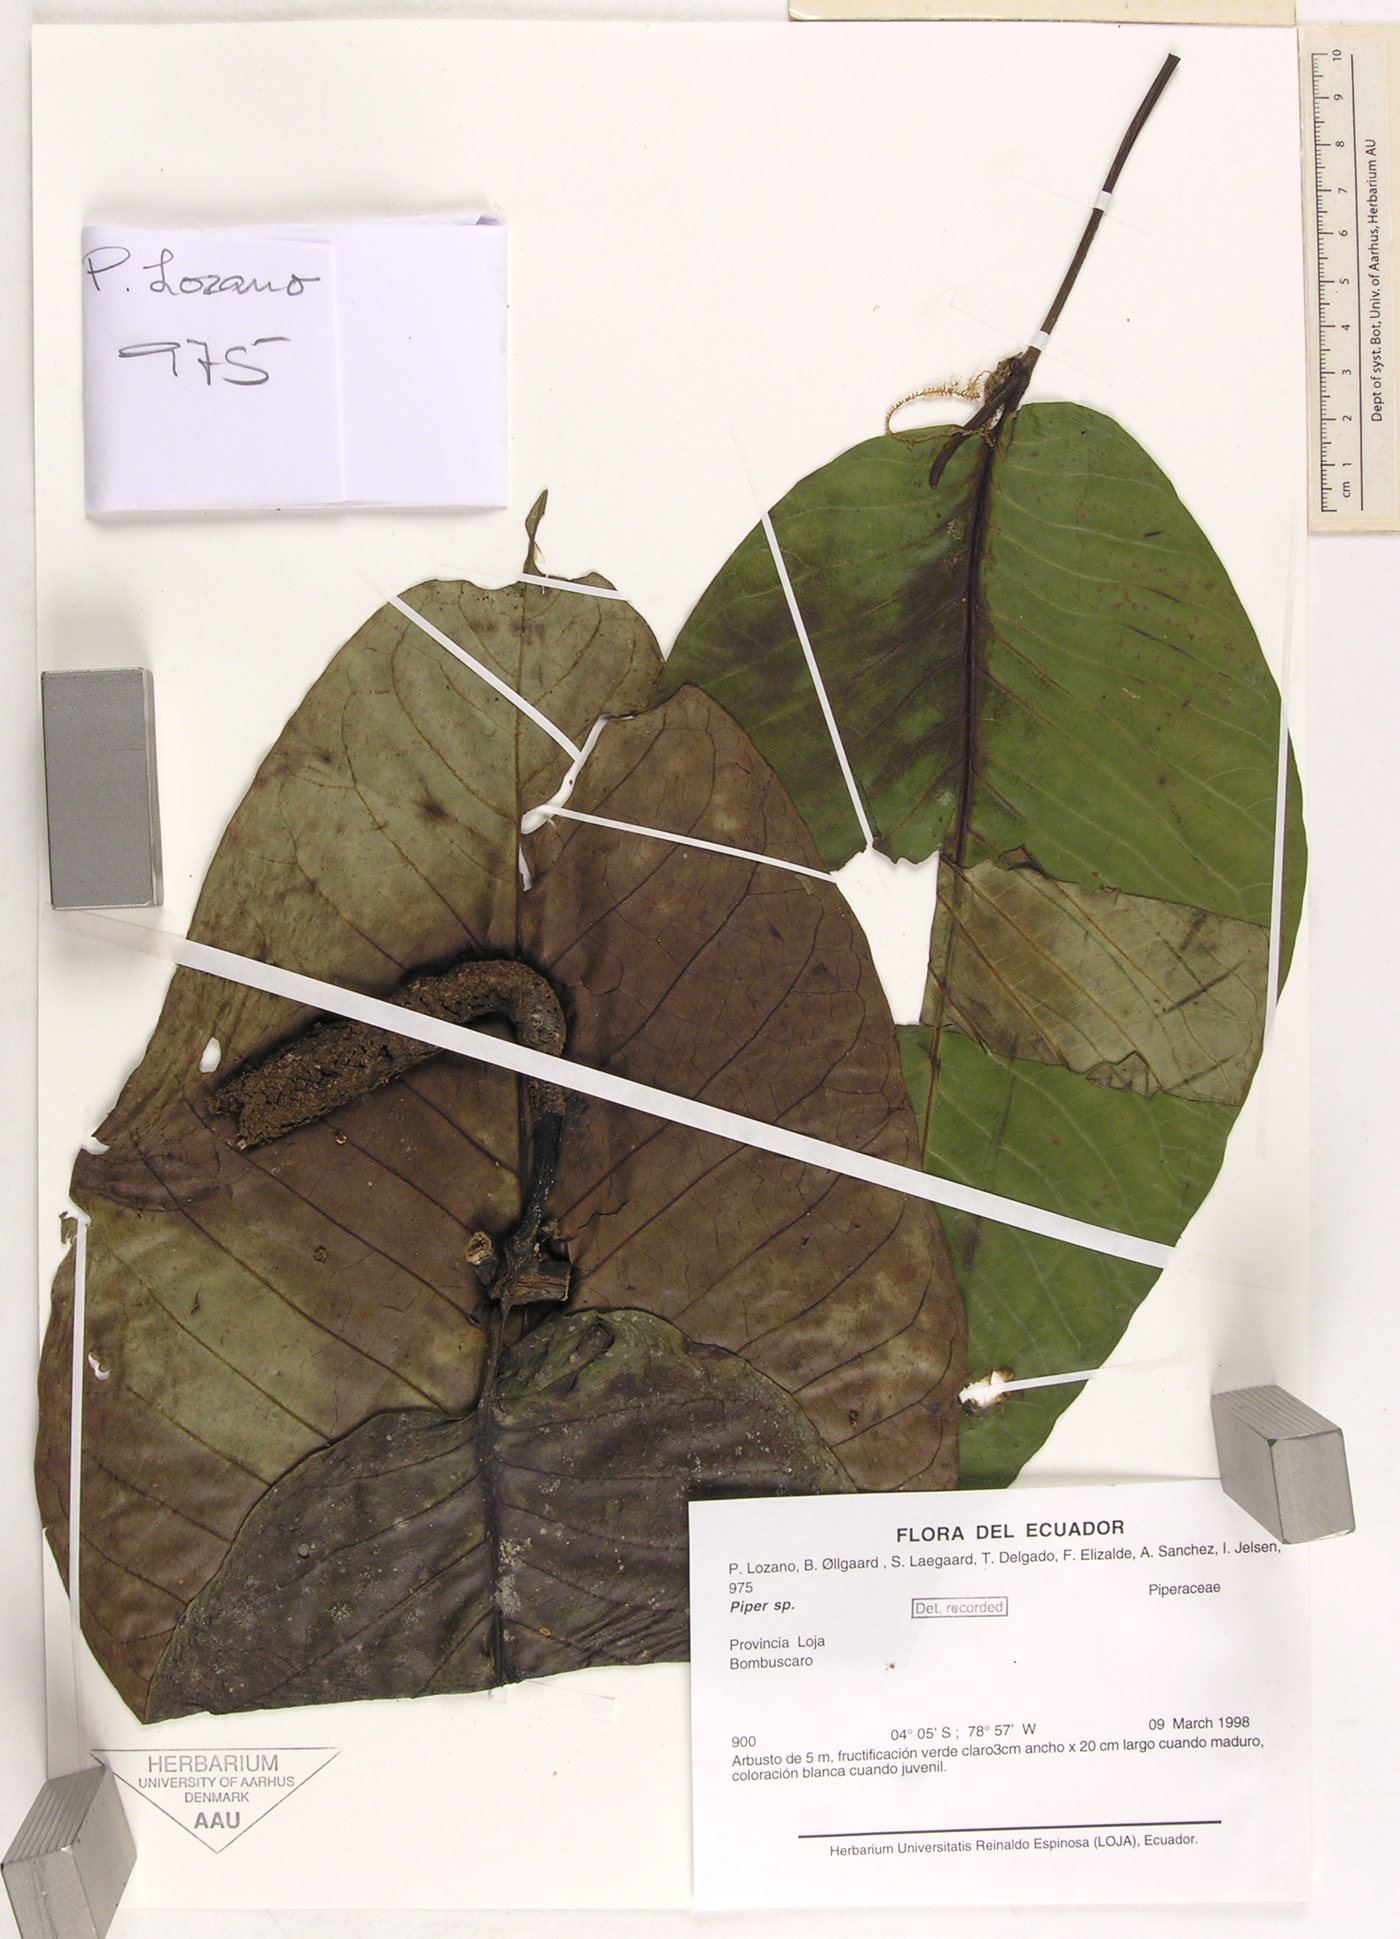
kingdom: Plantae
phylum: Tracheophyta
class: Magnoliopsida
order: Piperales
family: Piperaceae
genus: Piper
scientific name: Piper
